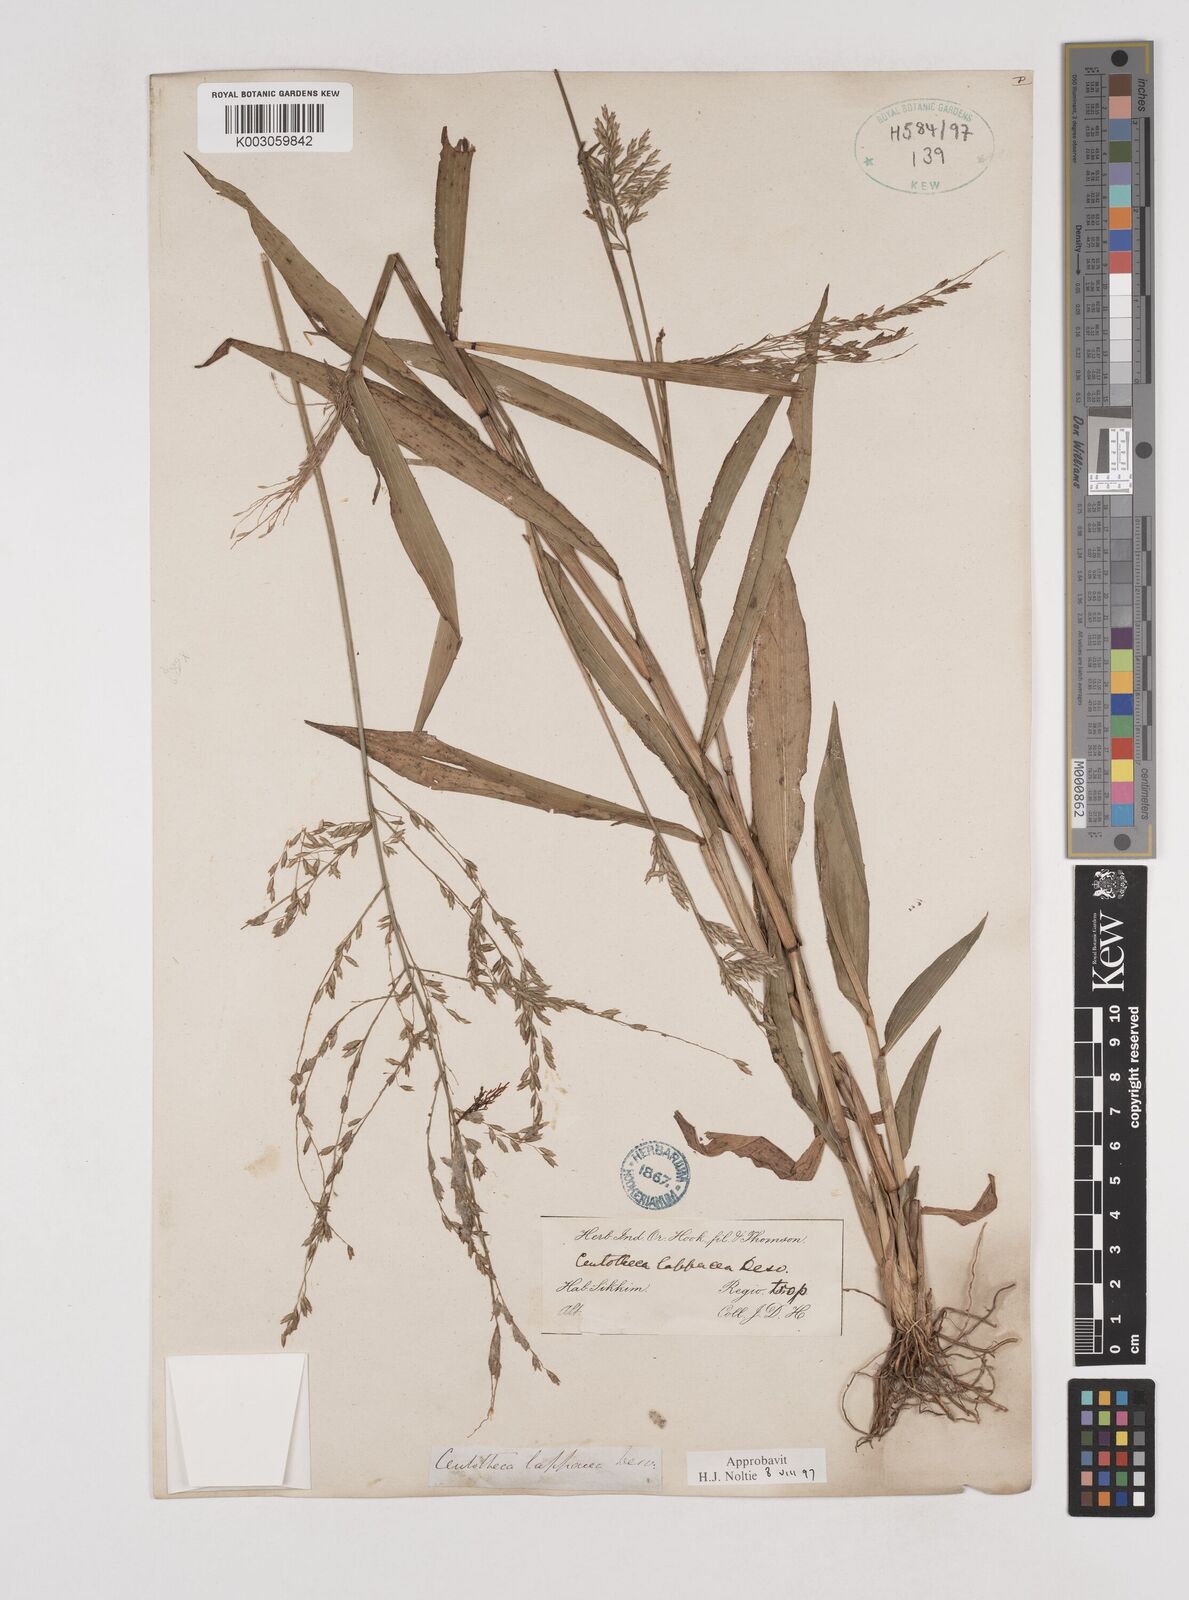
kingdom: Plantae
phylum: Tracheophyta
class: Liliopsida
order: Poales
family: Poaceae
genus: Centotheca
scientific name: Centotheca lappacea
